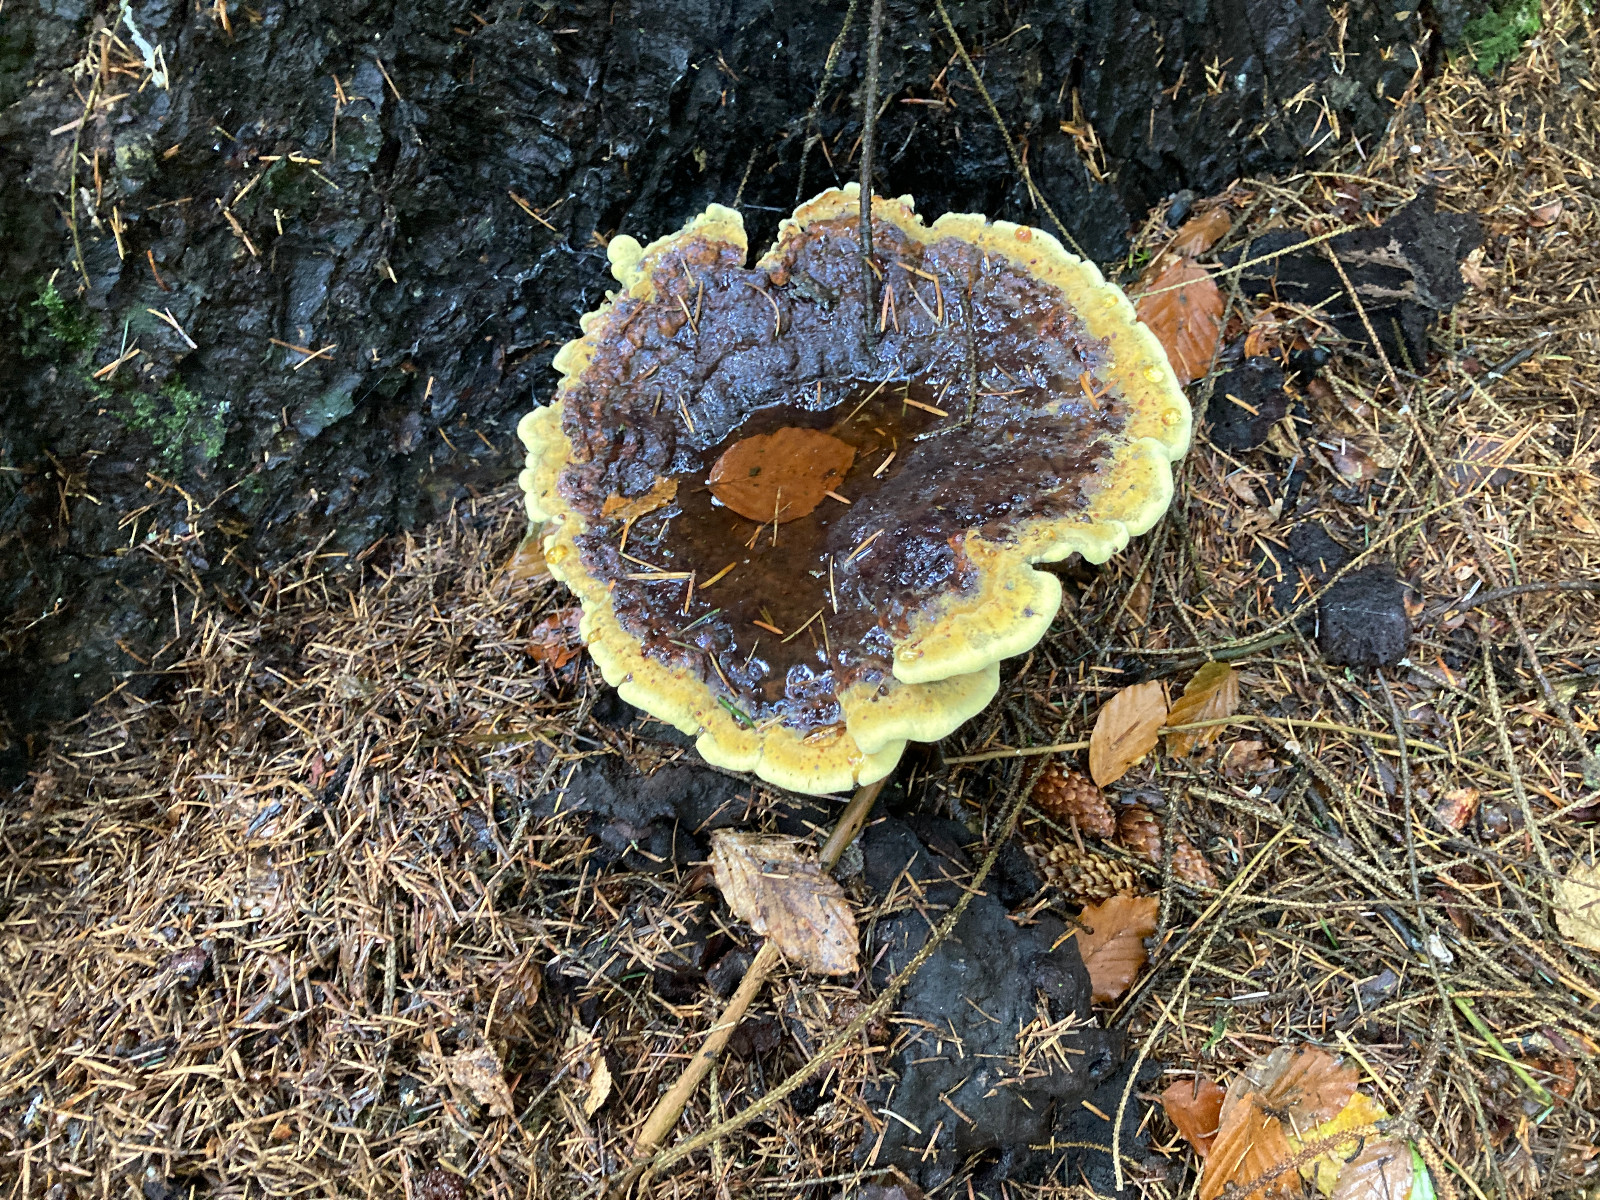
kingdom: Fungi
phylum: Basidiomycota
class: Agaricomycetes
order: Polyporales
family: Laetiporaceae
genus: Phaeolus
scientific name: Phaeolus schweinitzii
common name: brunporesvamp
